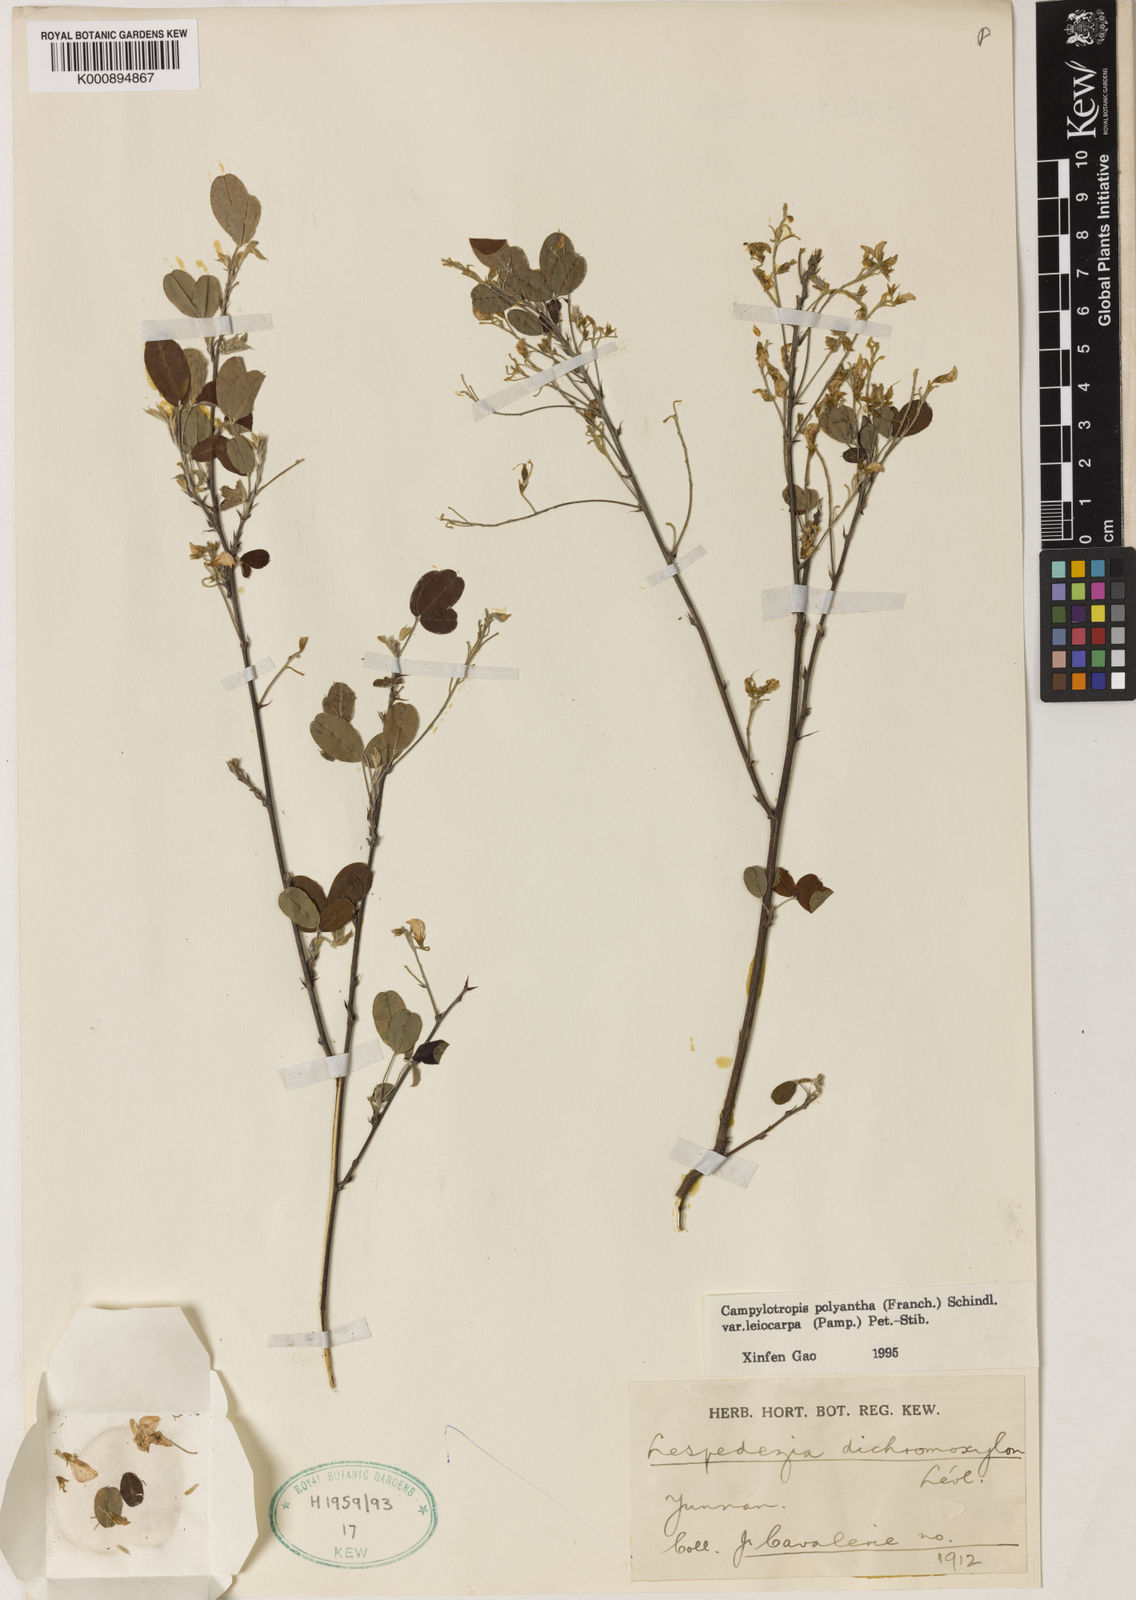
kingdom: Plantae
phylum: Tracheophyta
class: Magnoliopsida
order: Fabales
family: Fabaceae
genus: Campylotropis
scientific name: Campylotropis polyantha
